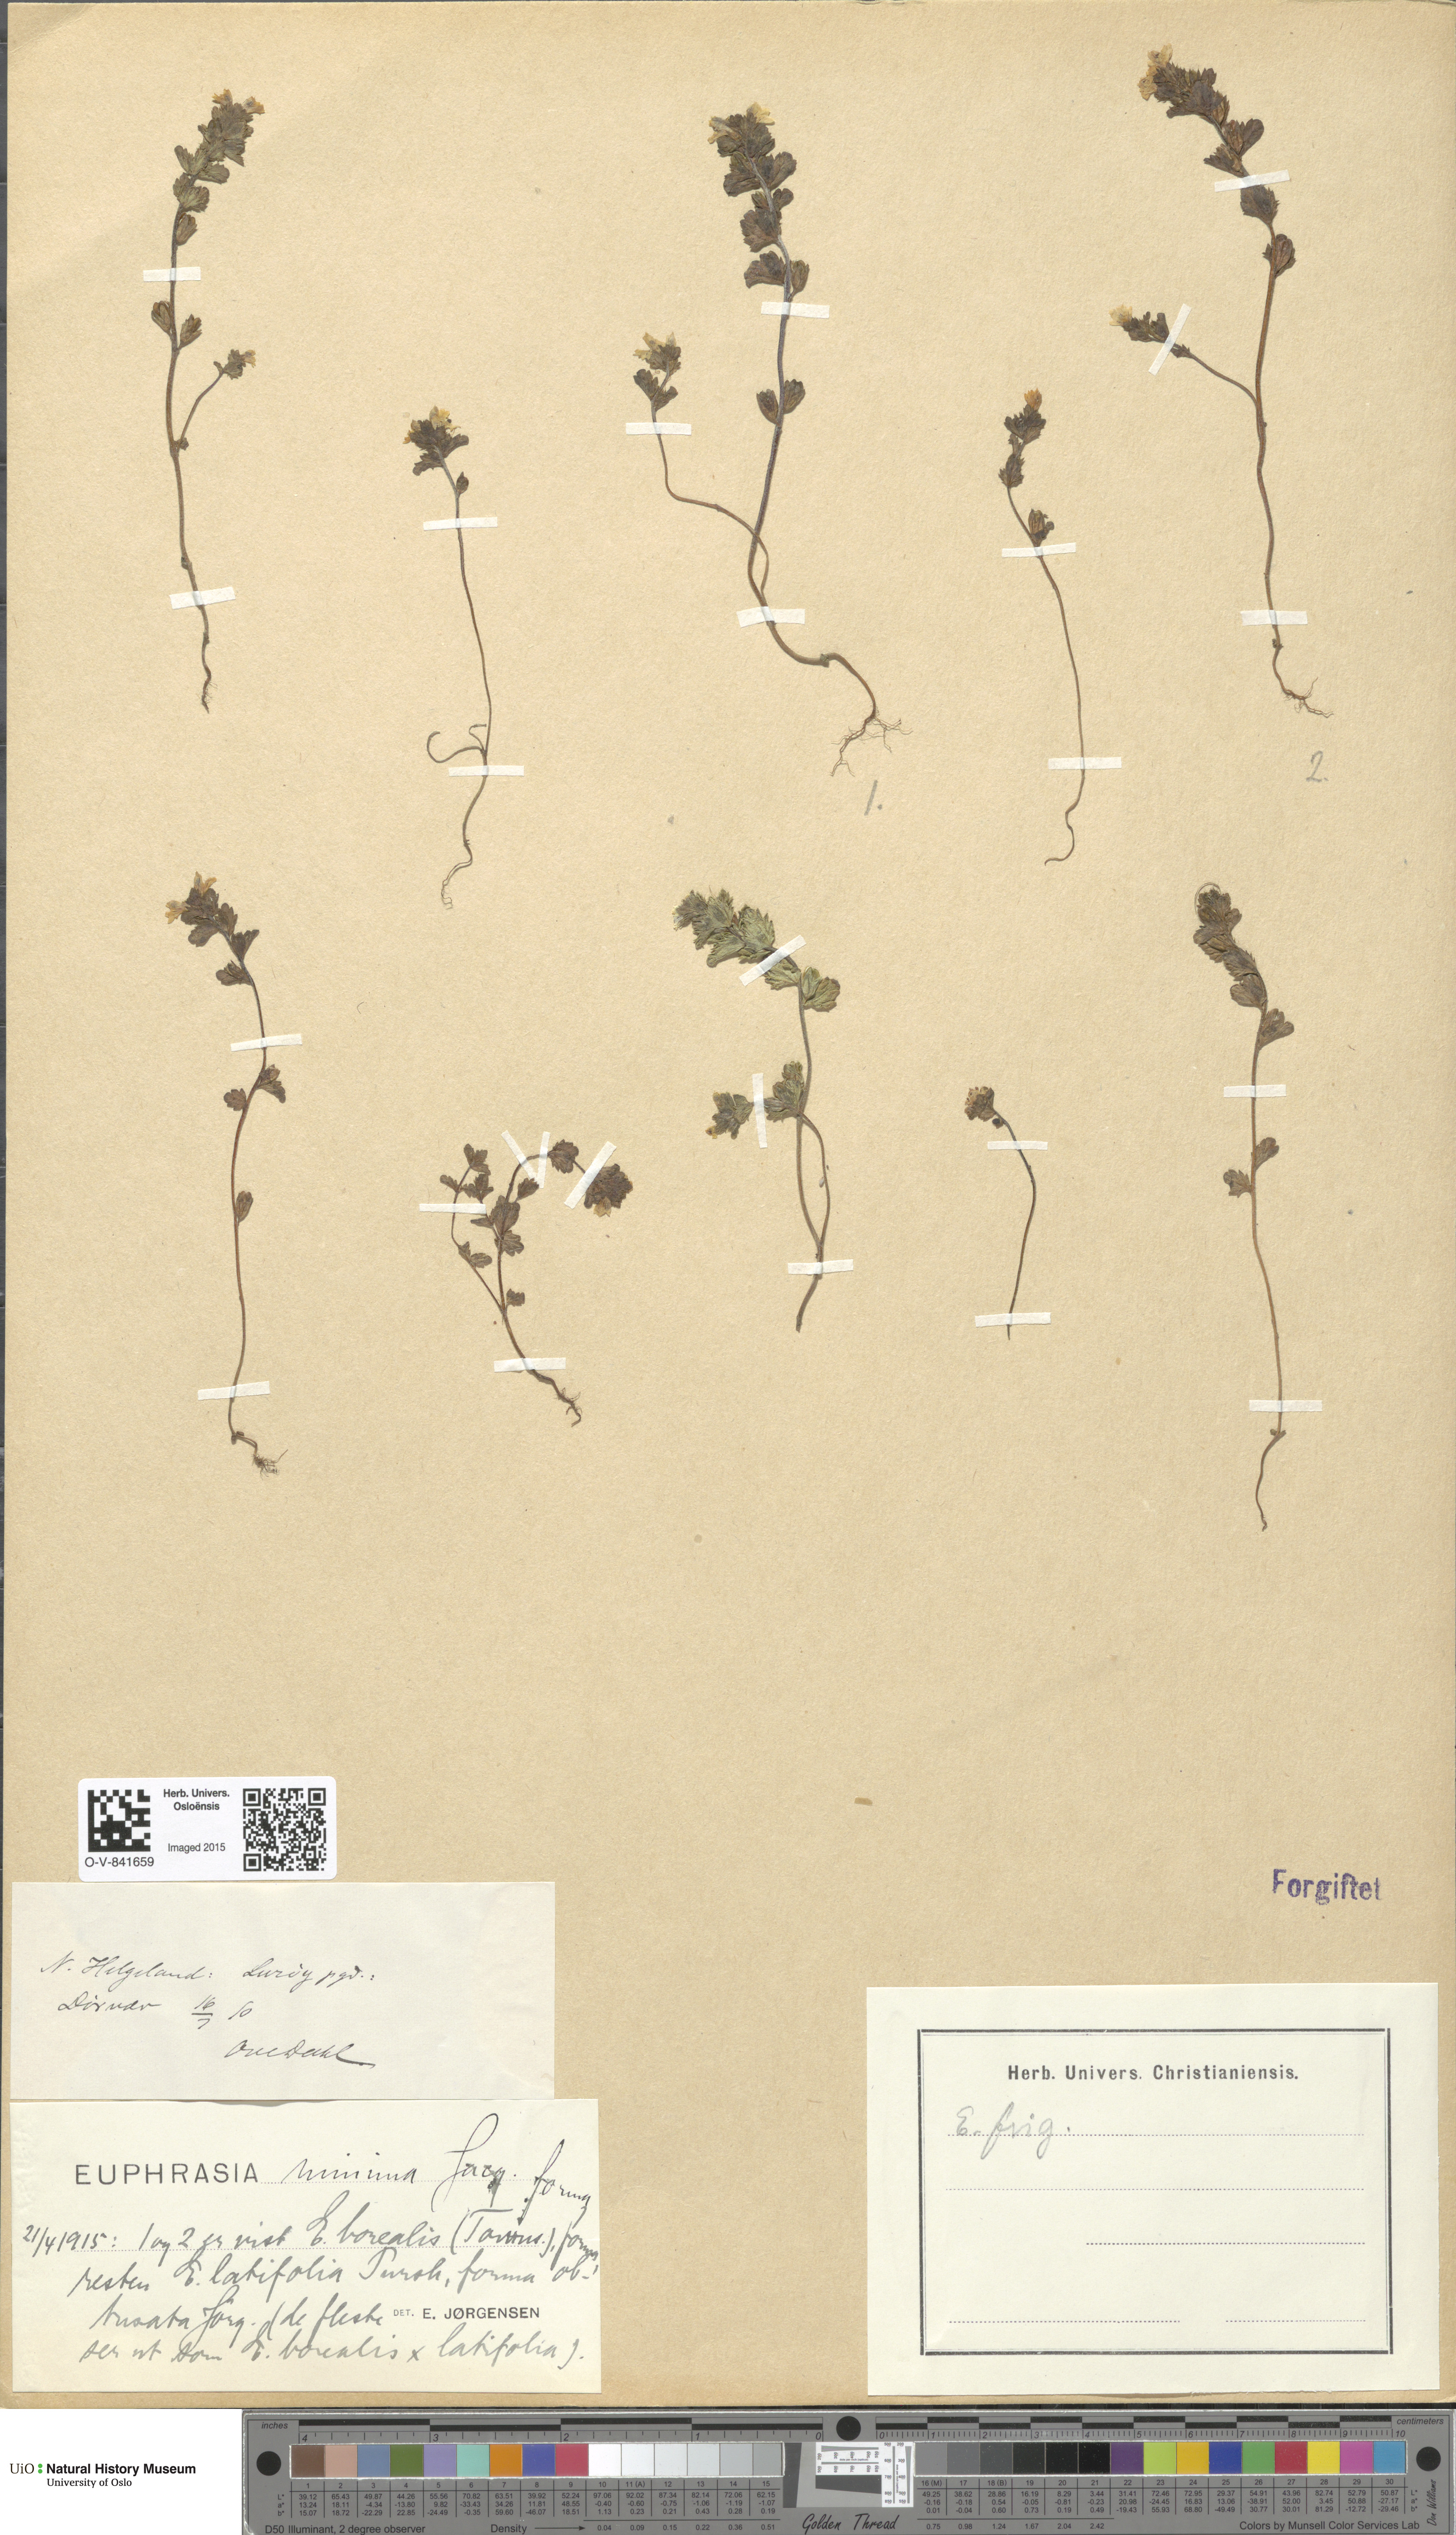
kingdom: Plantae
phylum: Tracheophyta
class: Magnoliopsida
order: Lamiales
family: Orobanchaceae
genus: Euphrasia
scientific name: Euphrasia wettsteinii
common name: Wettstein's eyebright
